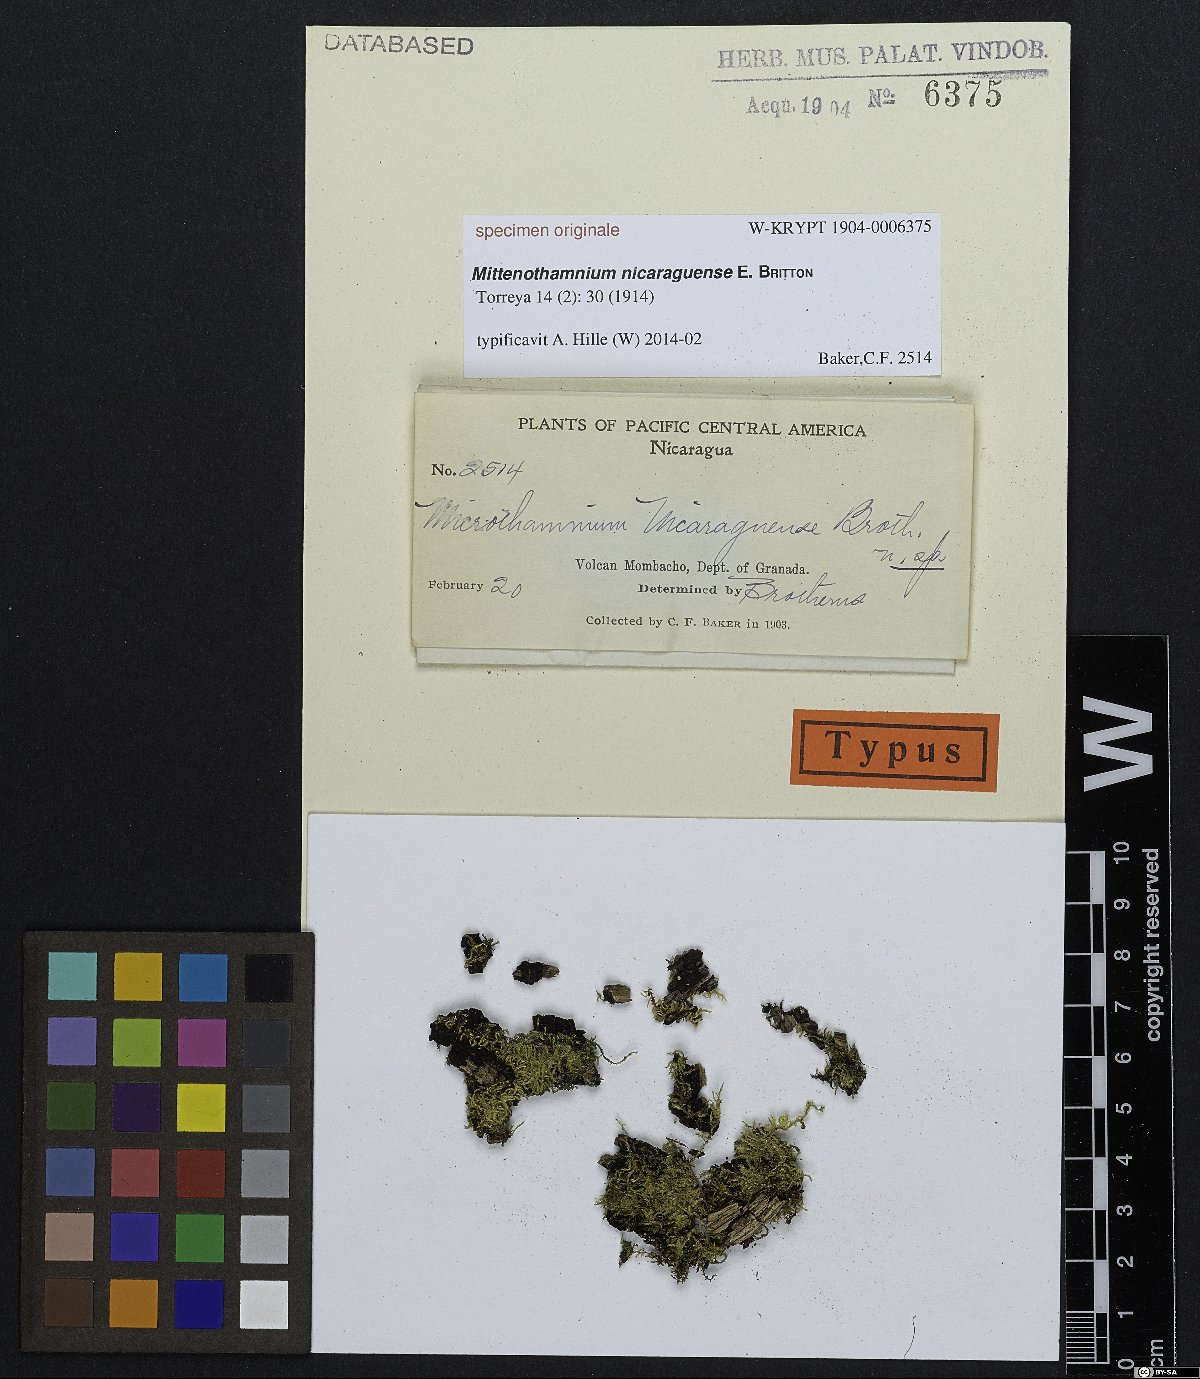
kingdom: Plantae
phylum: Bryophyta
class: Bryopsida
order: Hypnales
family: Hypnaceae
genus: Mittenothamnium
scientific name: Mittenothamnium
